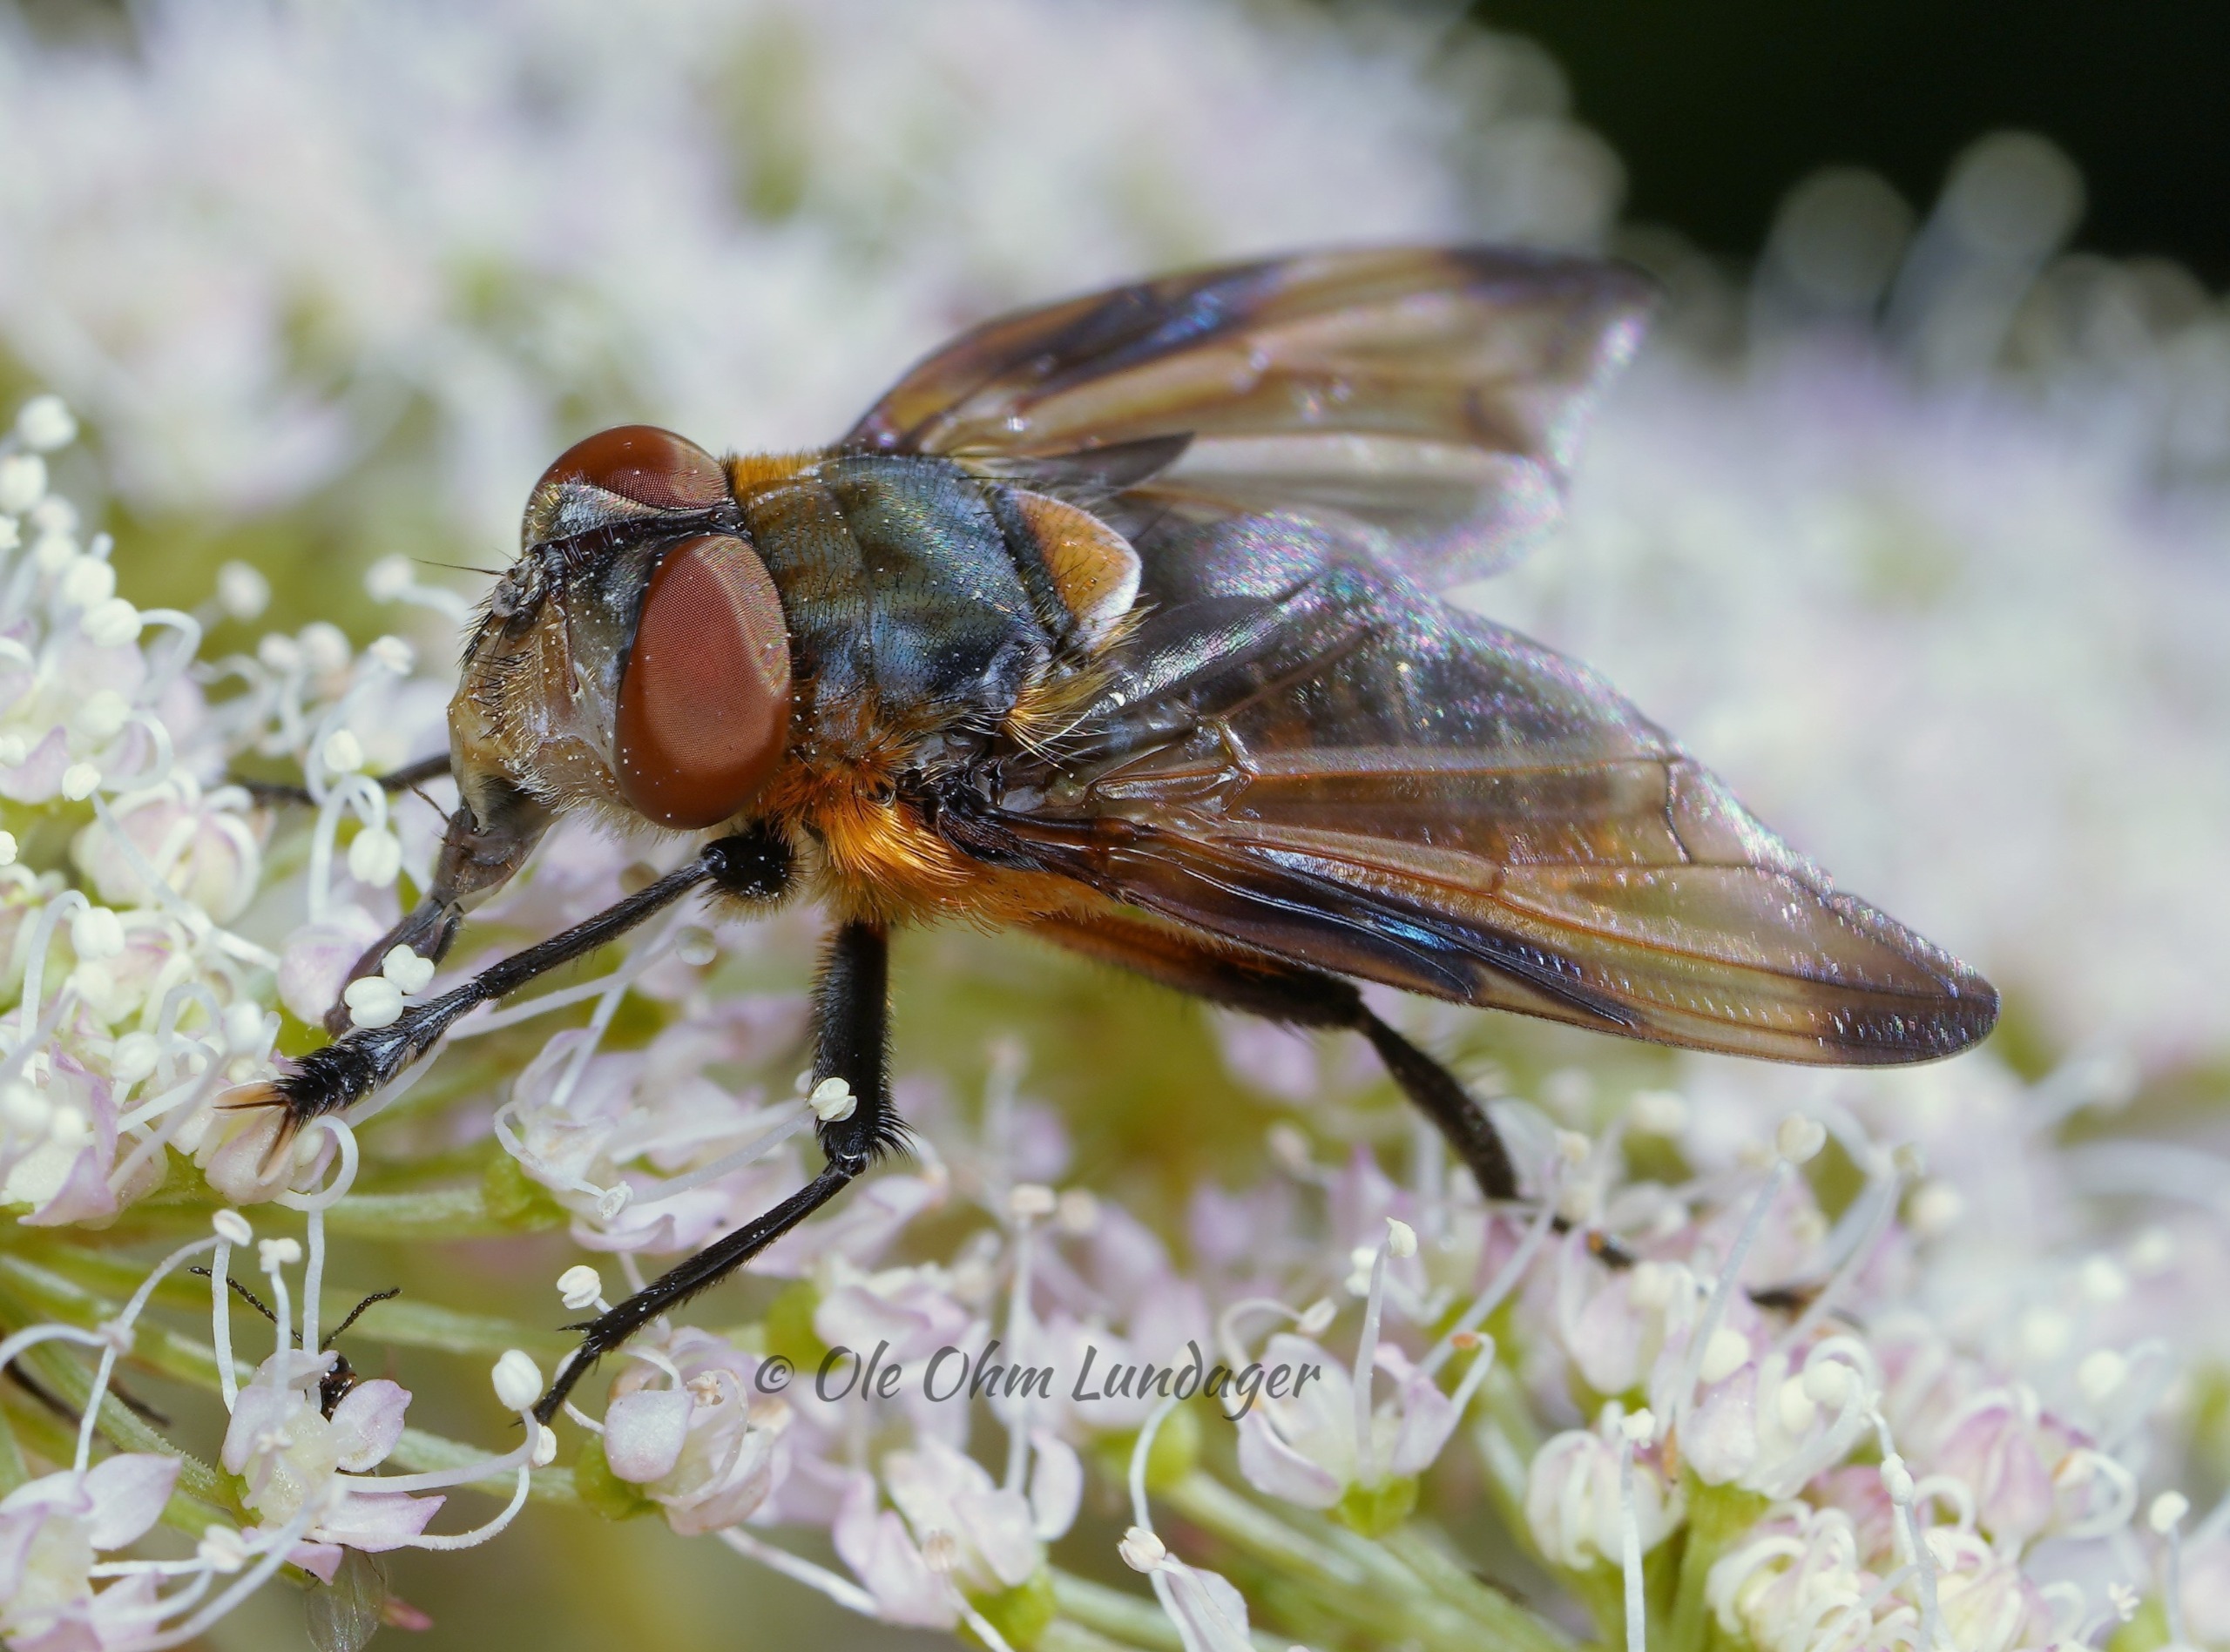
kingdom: Animalia
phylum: Arthropoda
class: Insecta
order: Diptera
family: Tachinidae
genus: Phasia
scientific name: Phasia hemiptera
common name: Blåvinget pragtsnylteflue
